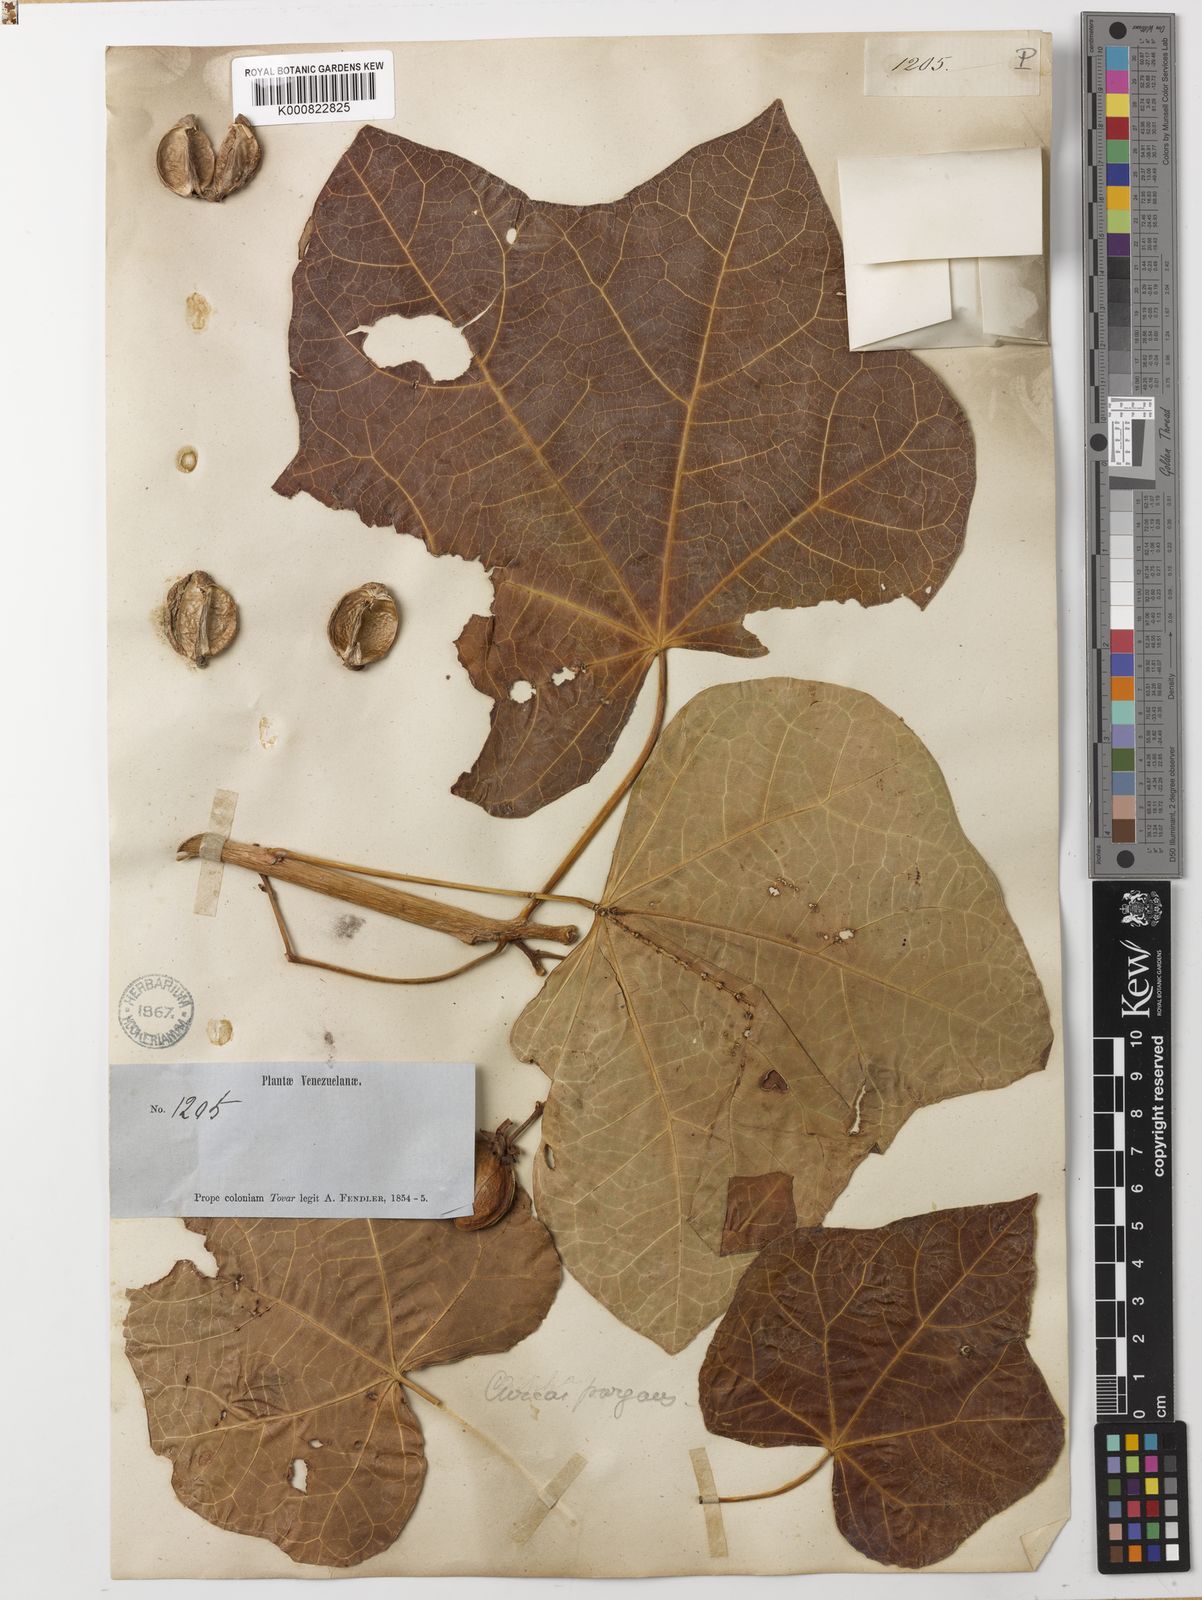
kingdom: Plantae
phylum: Tracheophyta
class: Magnoliopsida
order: Malpighiales
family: Euphorbiaceae
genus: Jatropha
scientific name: Jatropha curcas
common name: Barbados nut
